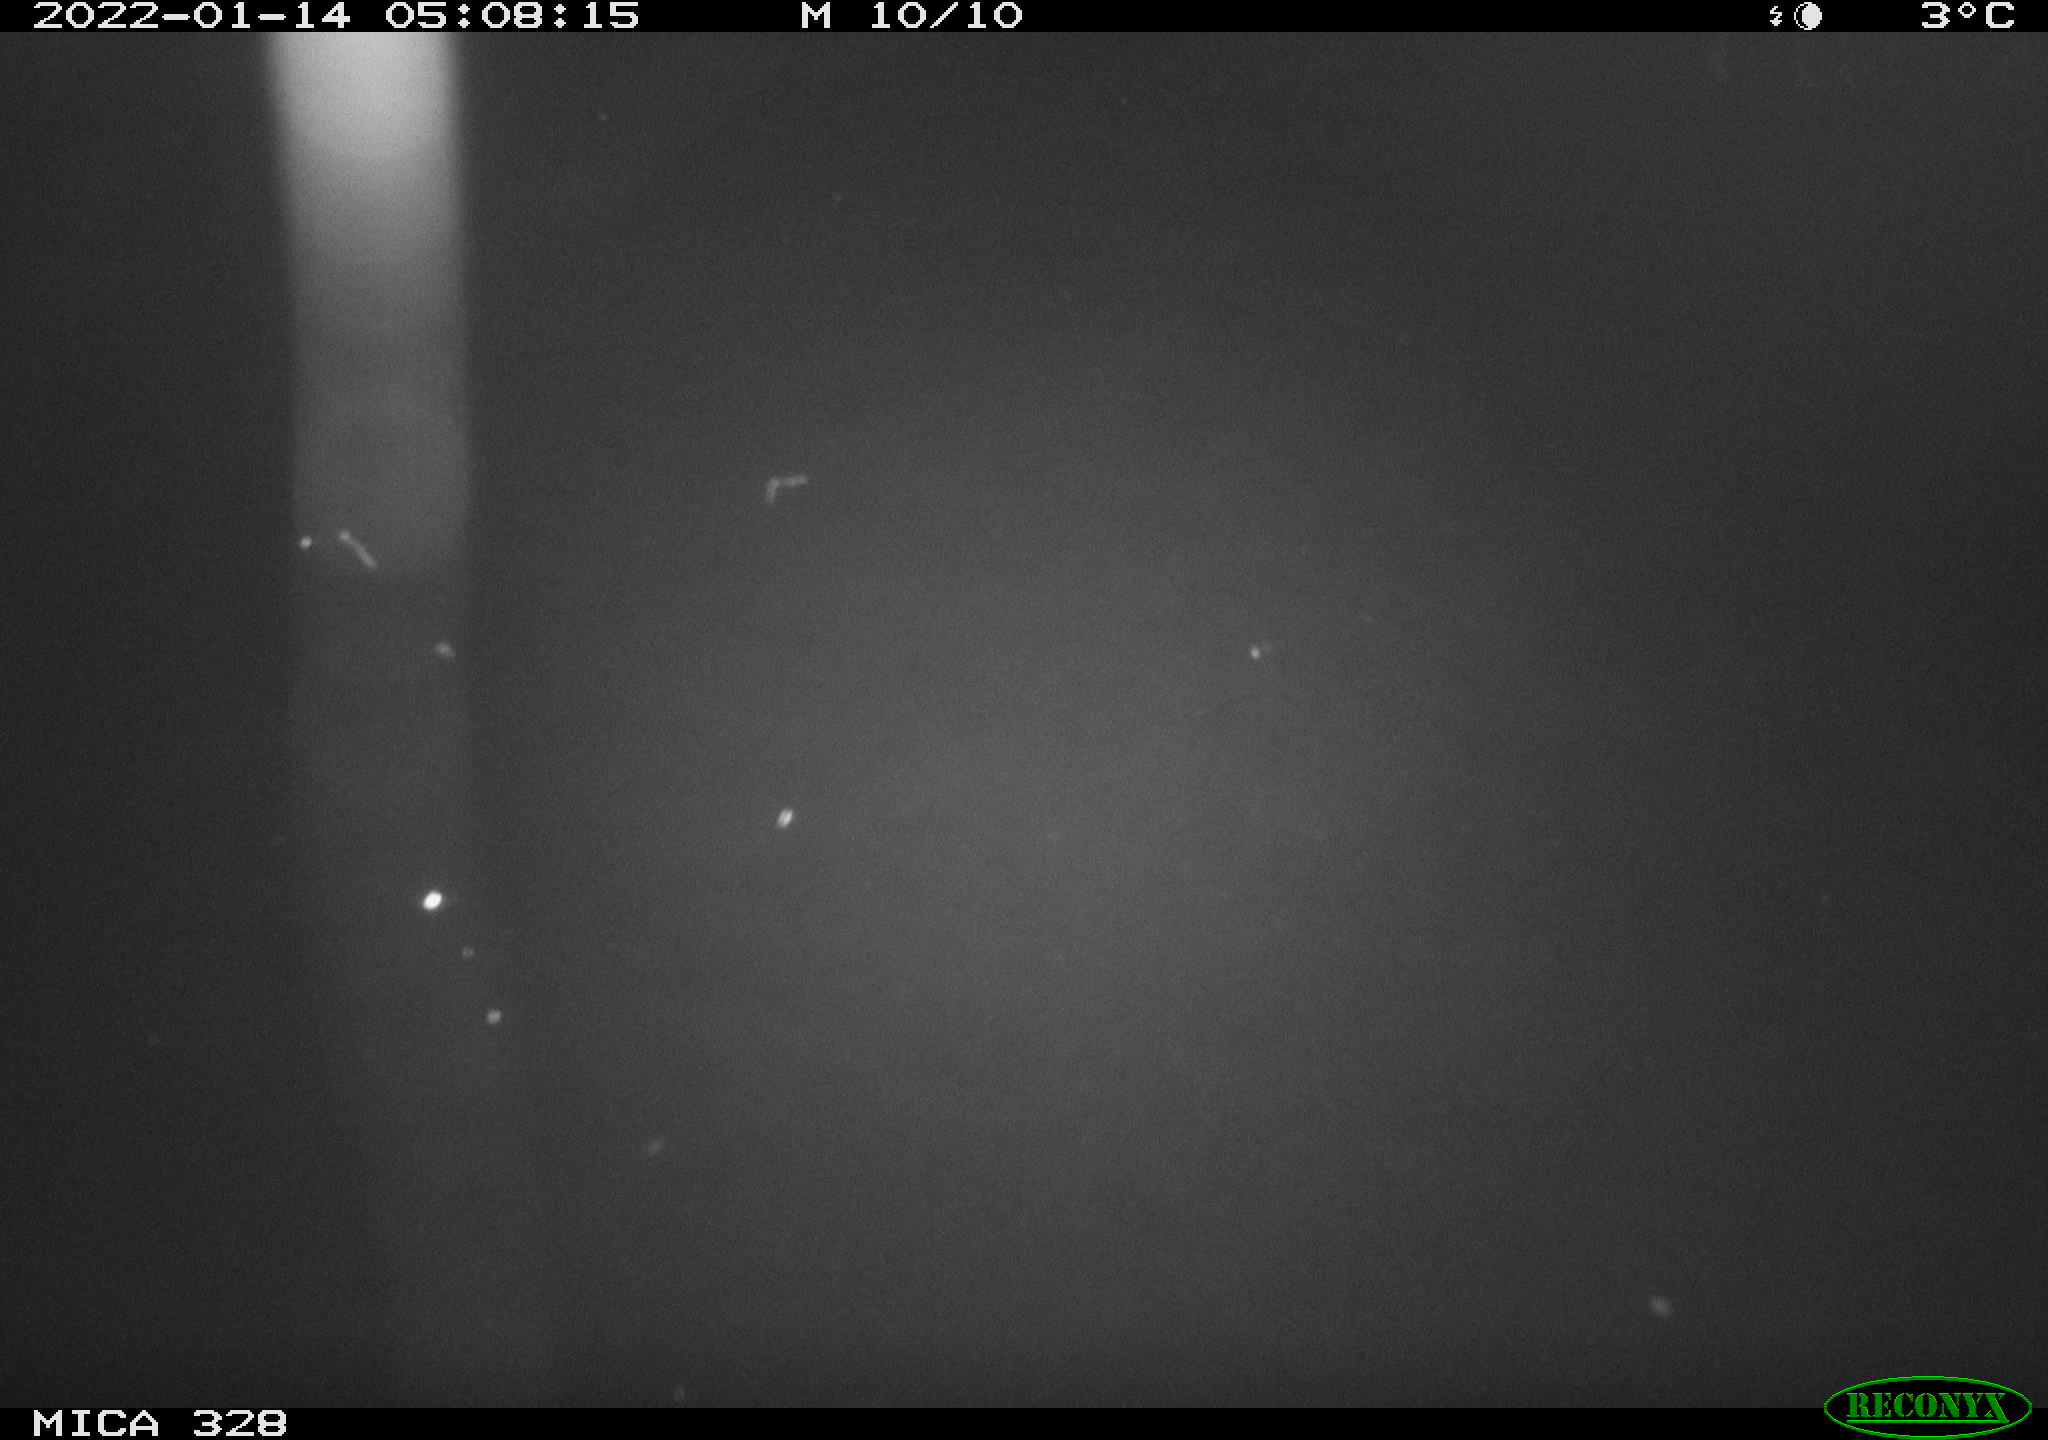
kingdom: Animalia
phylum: Chordata
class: Mammalia
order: Rodentia
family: Cricetidae
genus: Ondatra
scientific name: Ondatra zibethicus
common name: Muskrat
